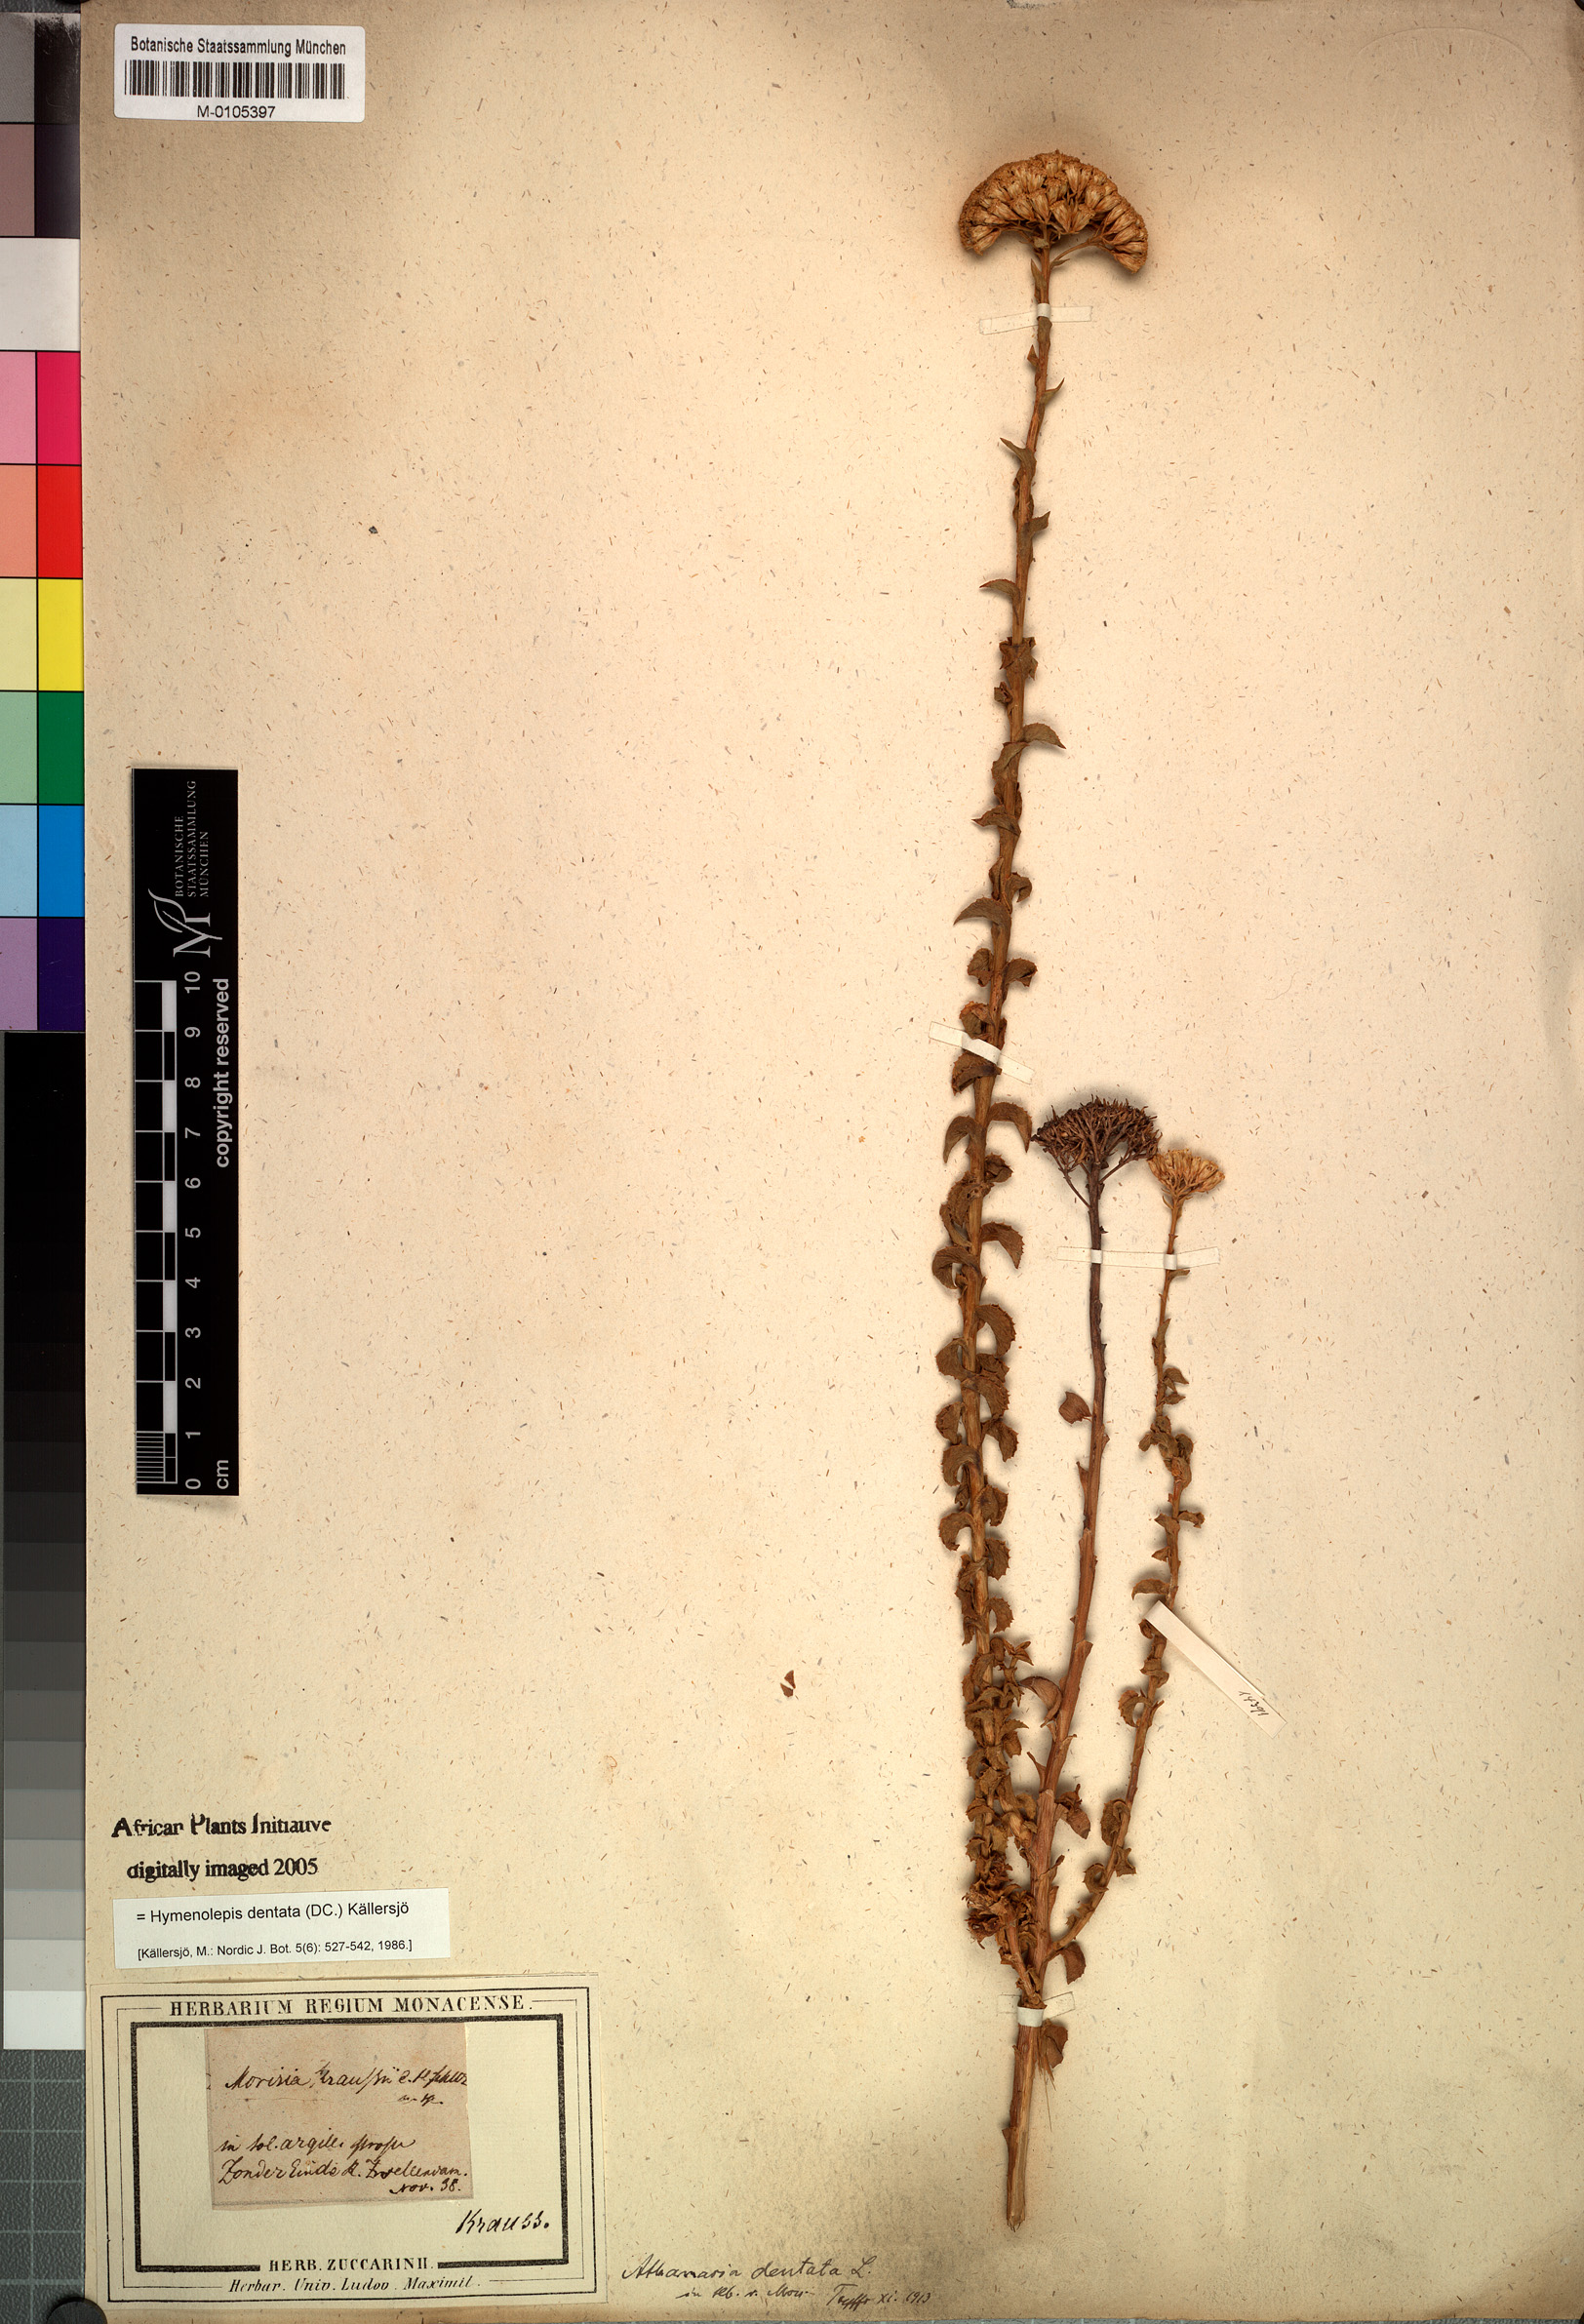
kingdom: Plantae
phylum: Tracheophyta
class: Magnoliopsida
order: Asterales
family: Asteraceae
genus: Hymenolepis
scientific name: Hymenolepis dentata
